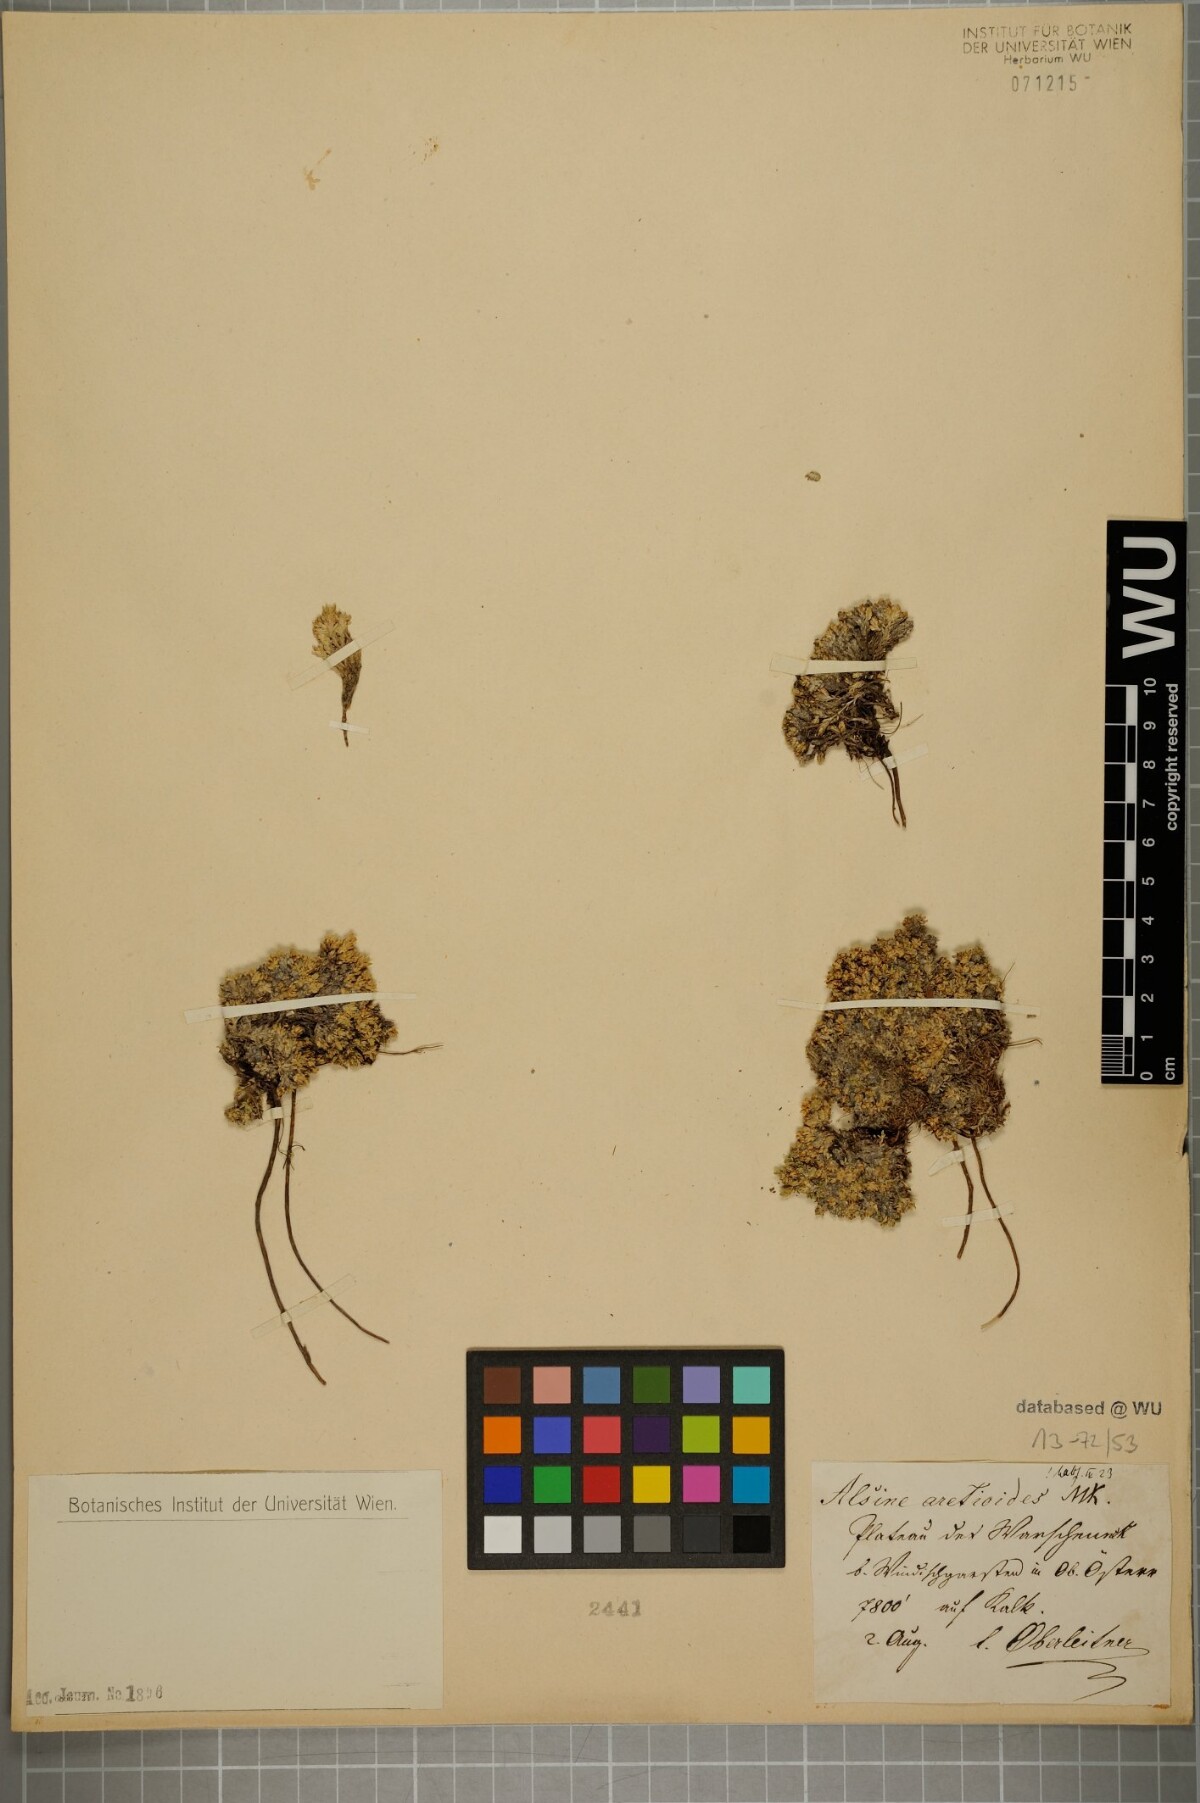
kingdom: Plantae
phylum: Tracheophyta
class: Magnoliopsida
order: Caryophyllales
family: Caryophyllaceae
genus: Facchinia
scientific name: Facchinia cherlerioides
